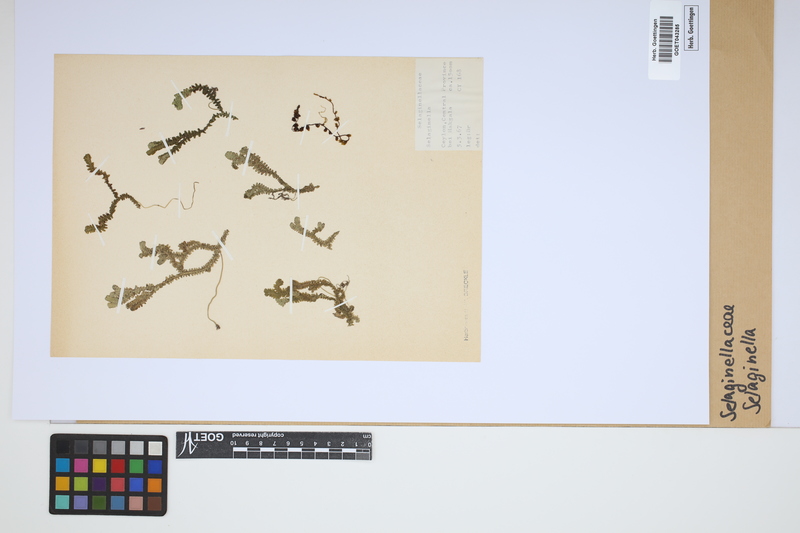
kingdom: Plantae
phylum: Tracheophyta
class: Lycopodiopsida
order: Selaginellales
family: Selaginellaceae
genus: Selaginella
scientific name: Selaginella
